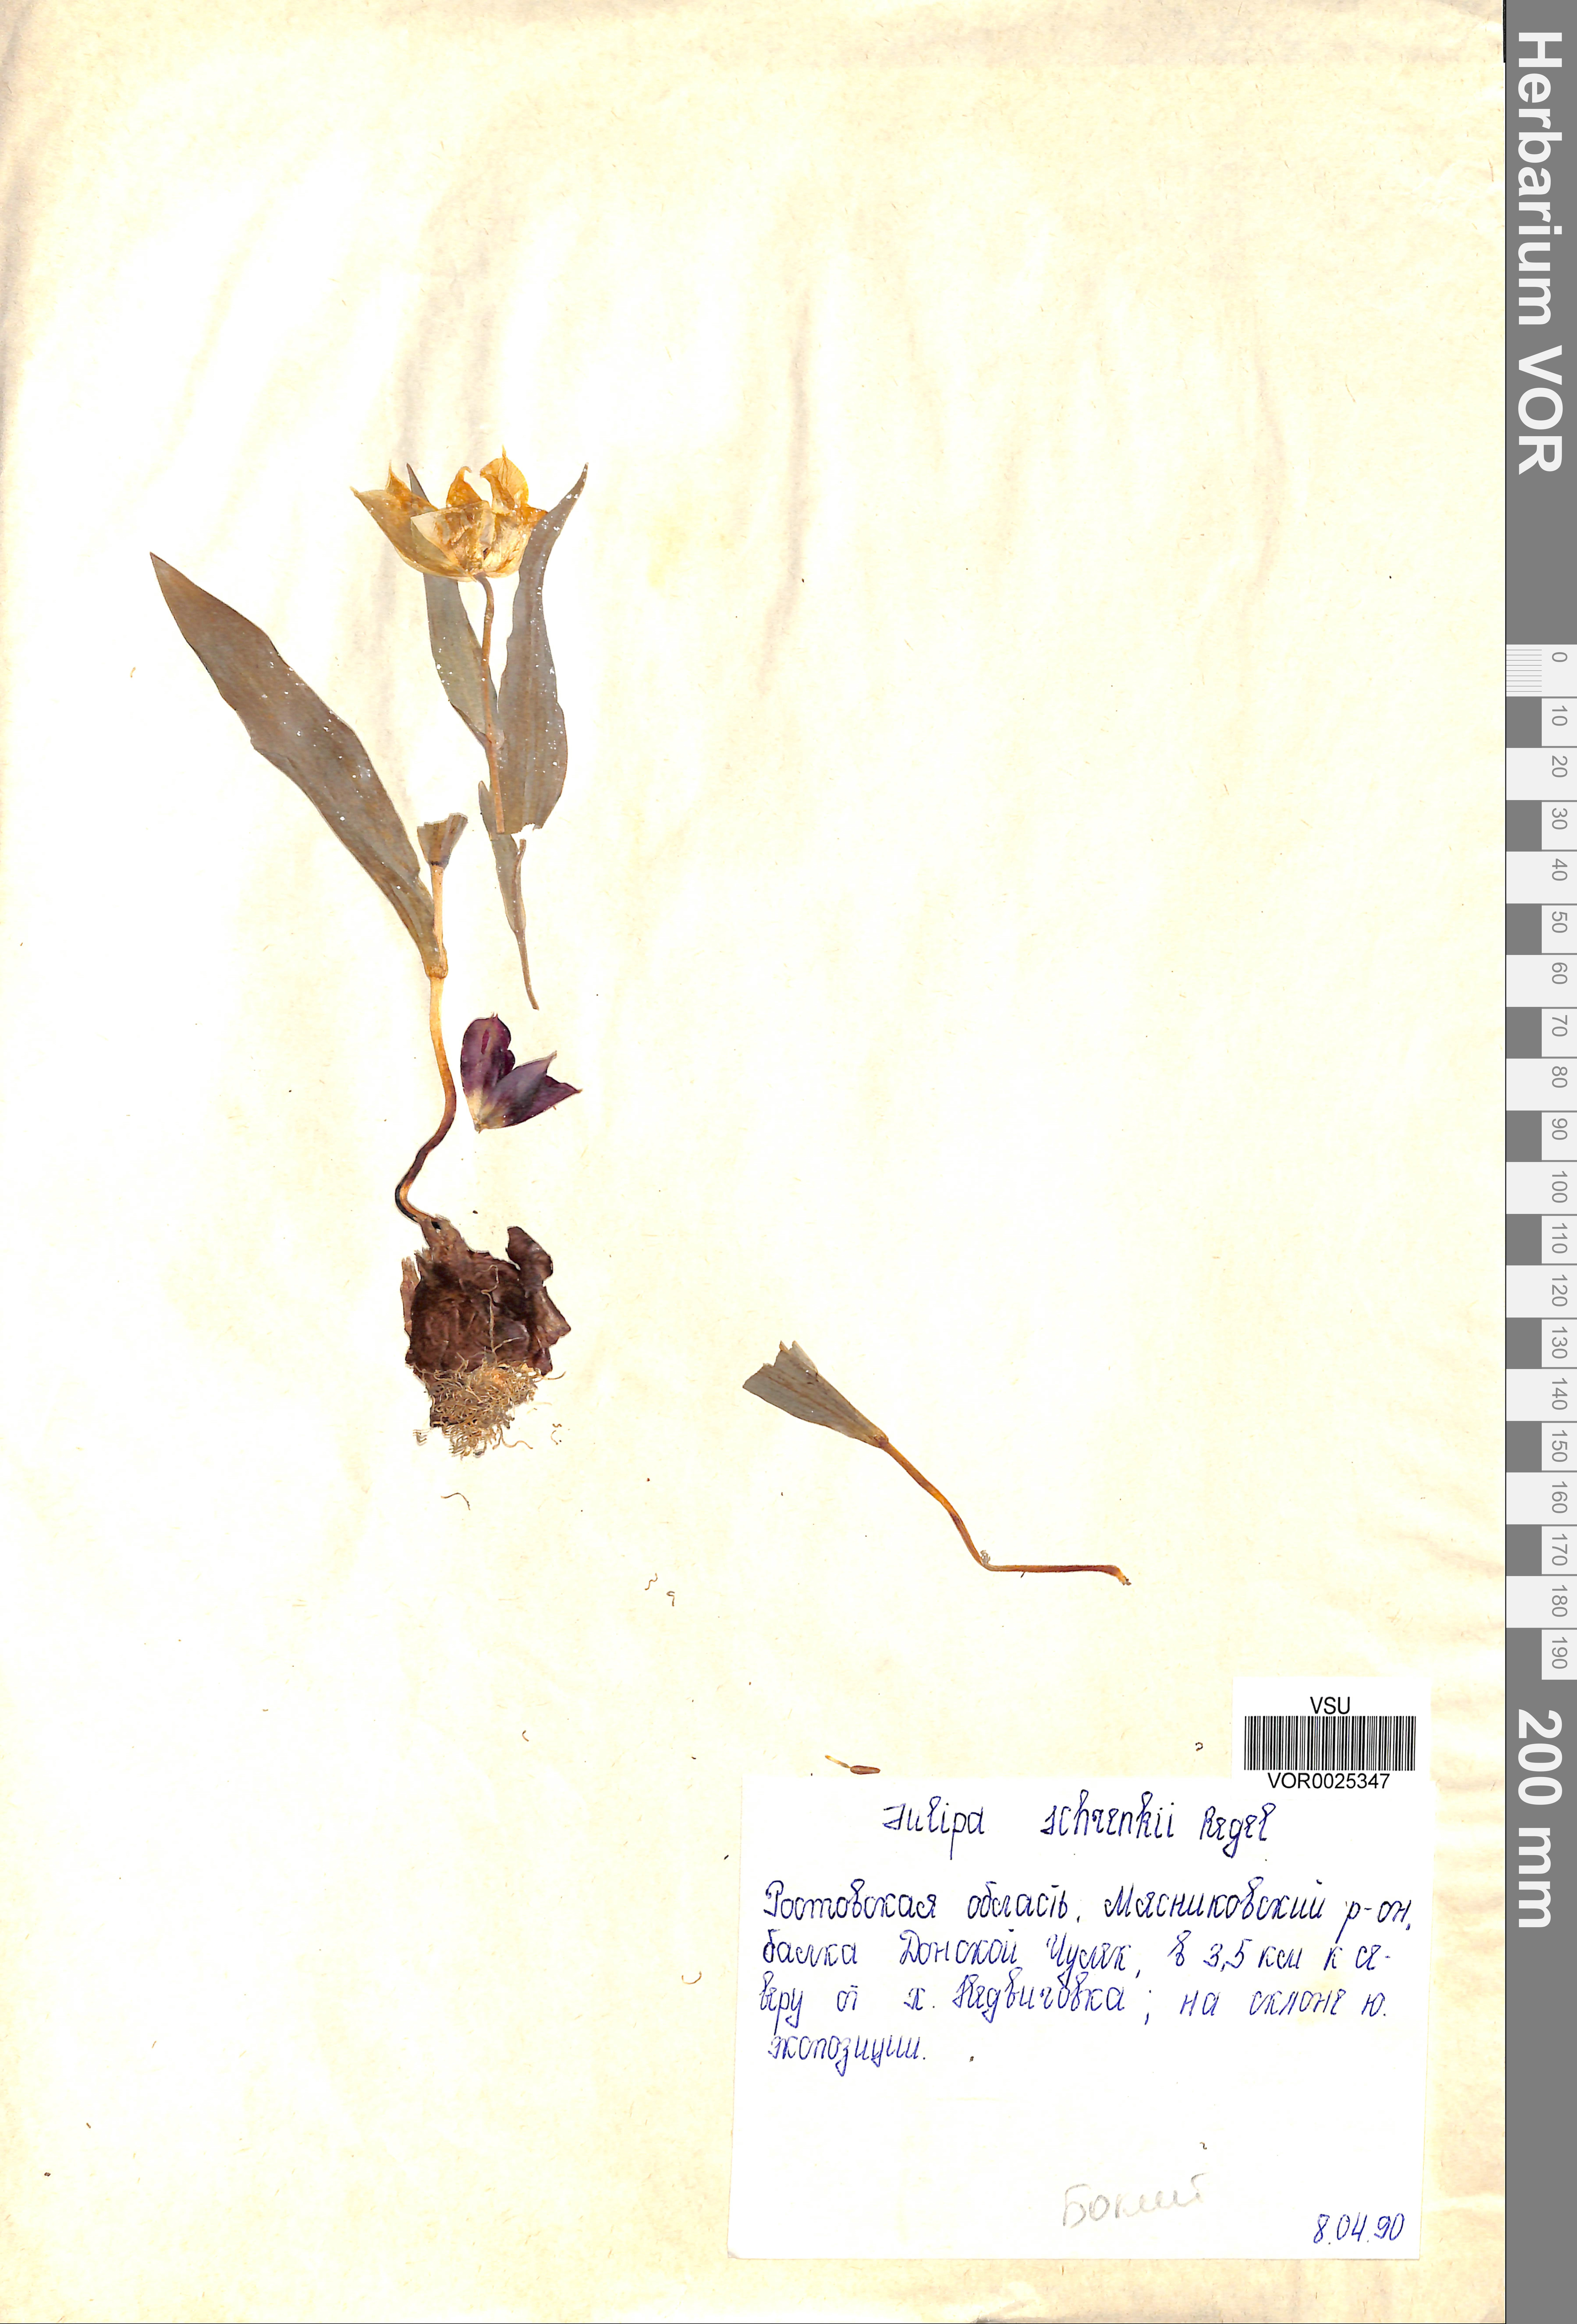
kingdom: Plantae
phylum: Tracheophyta
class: Liliopsida
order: Liliales
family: Liliaceae
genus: Tulipa
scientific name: Tulipa suaveolens
